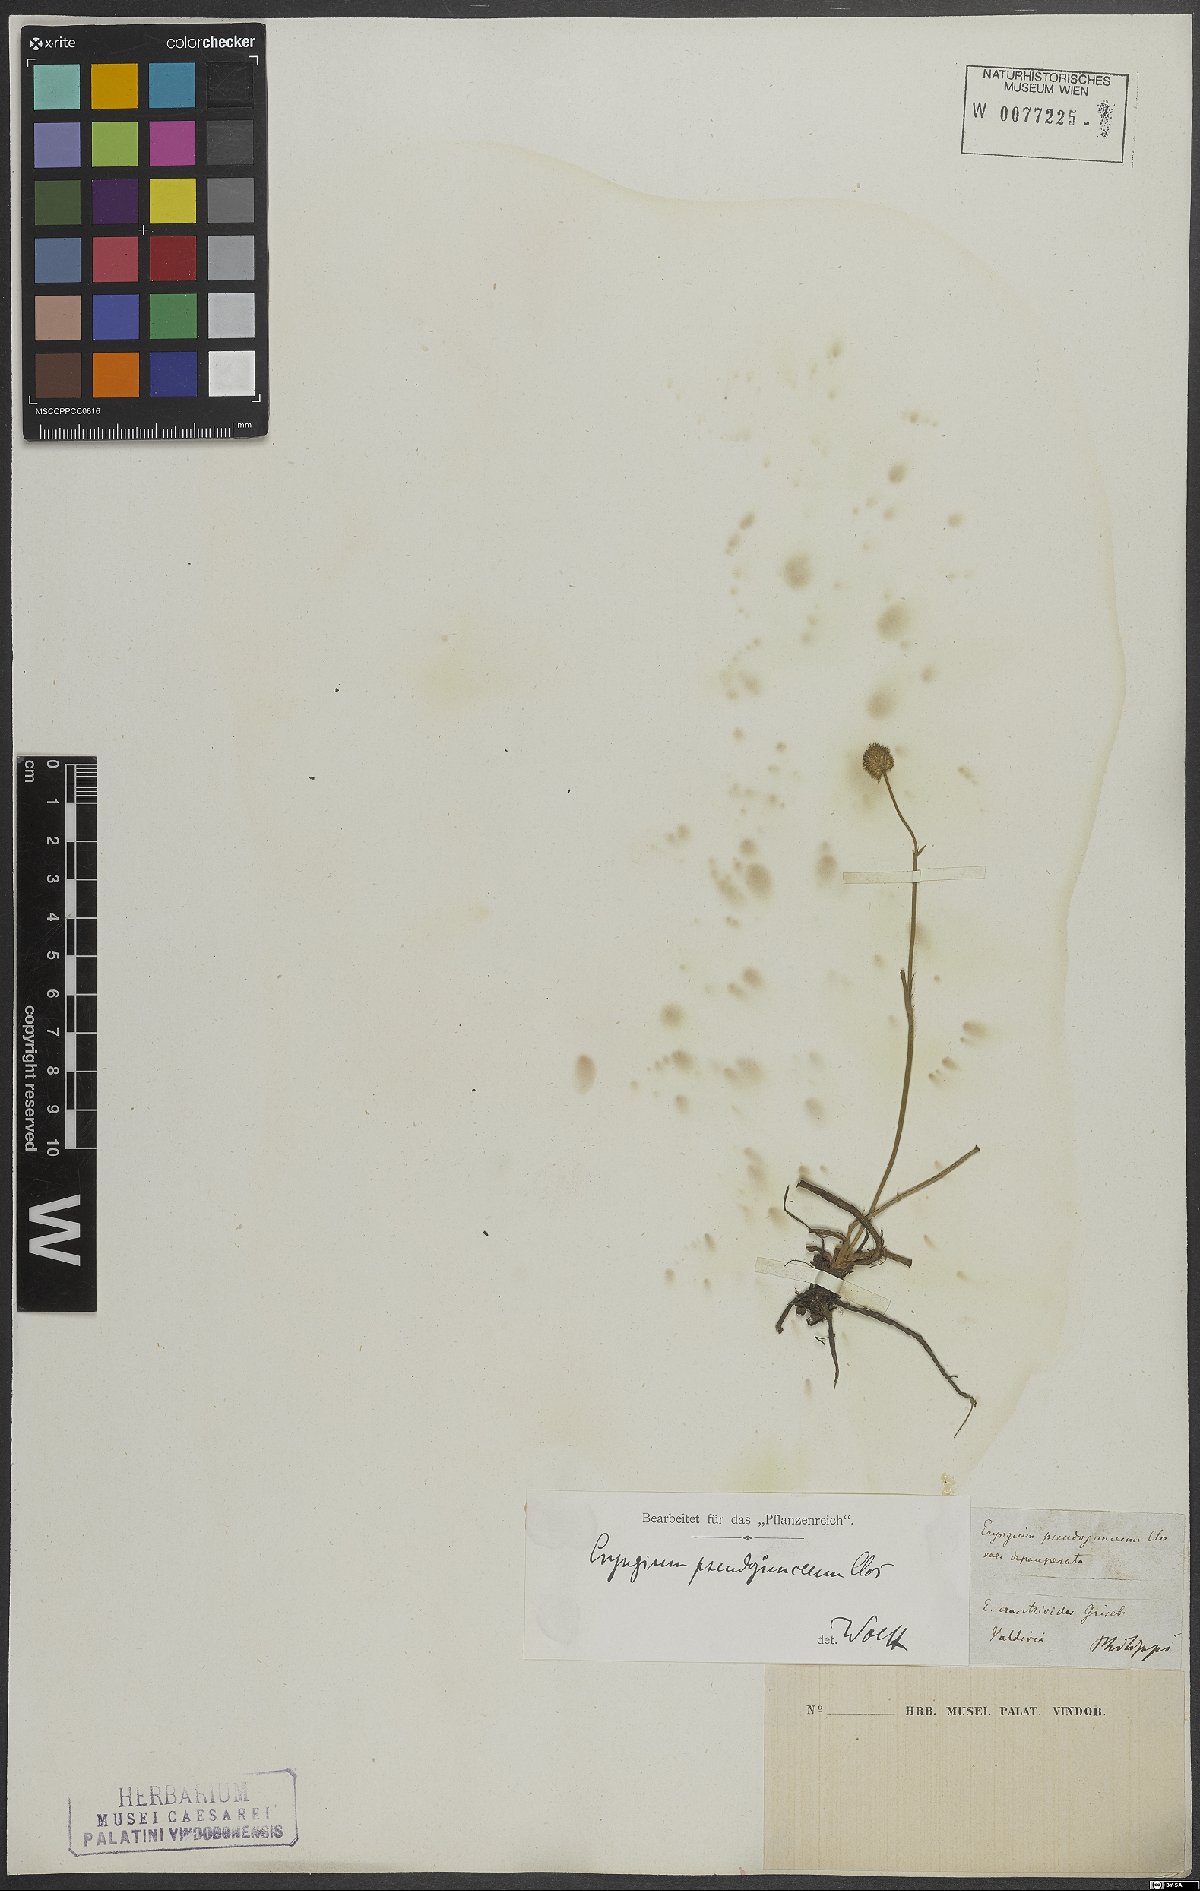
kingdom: Plantae
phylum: Tracheophyta
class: Magnoliopsida
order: Apiales
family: Apiaceae
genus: Eryngium
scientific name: Eryngium humifusum
